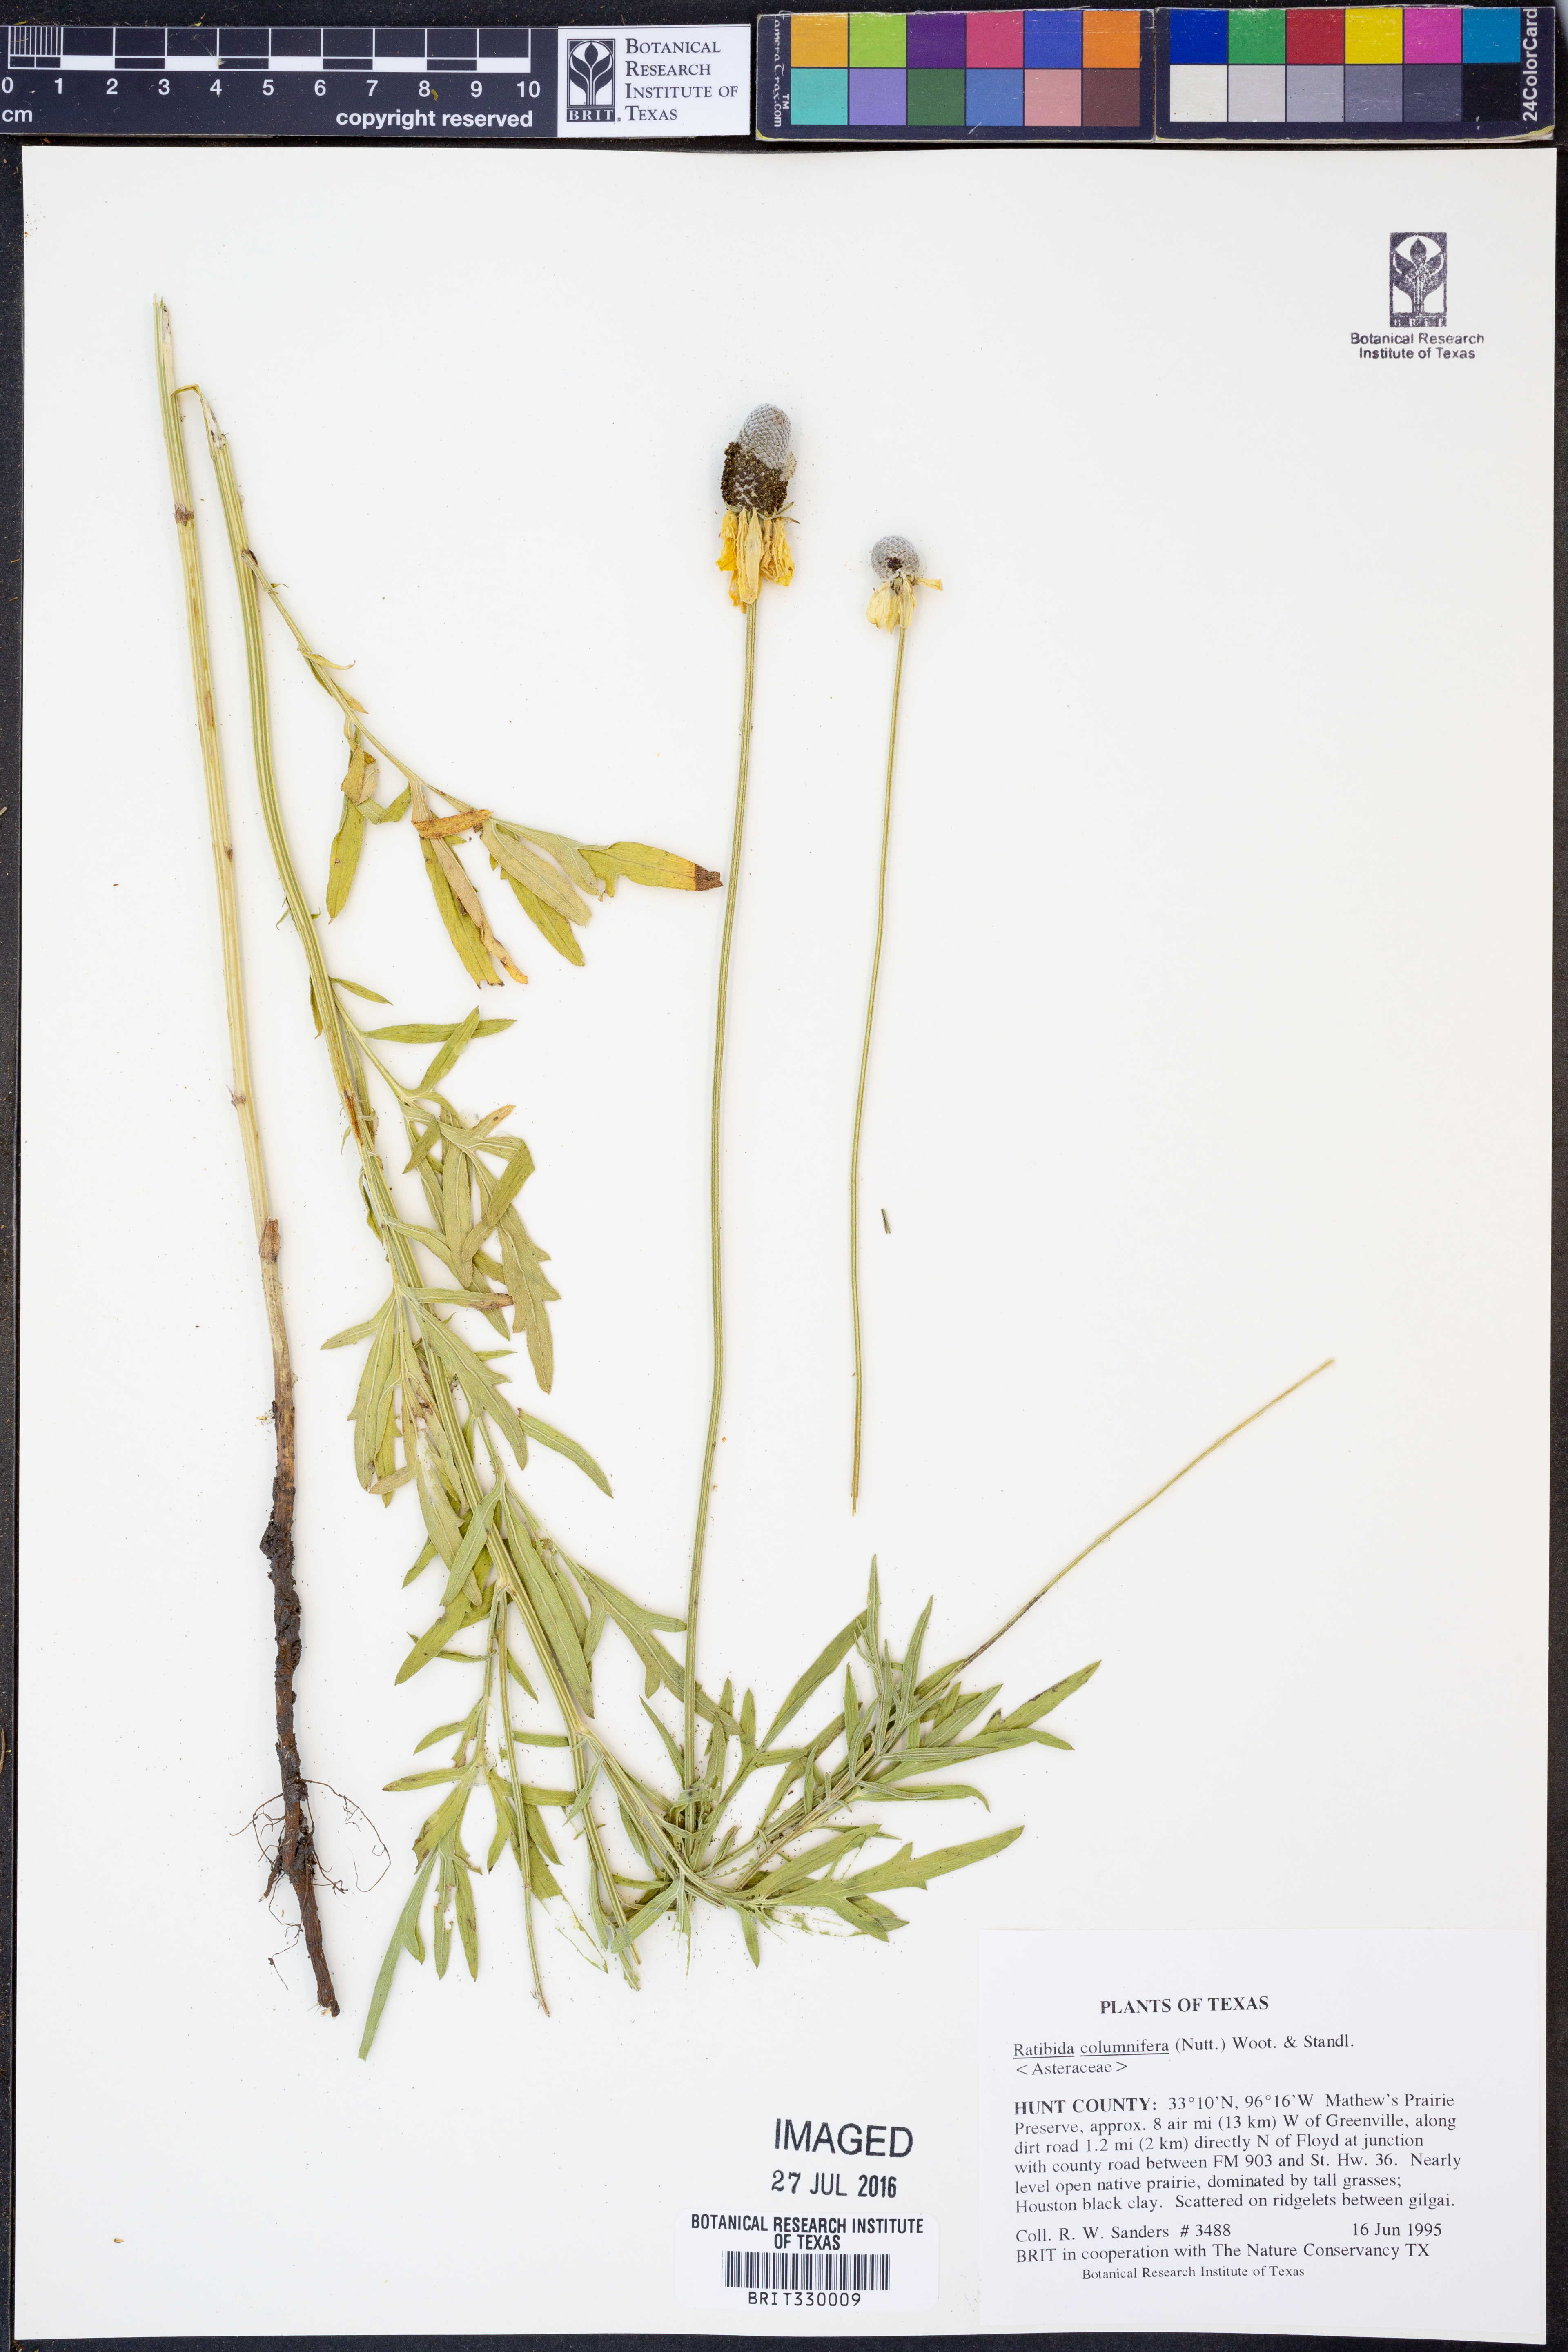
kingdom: Plantae
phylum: Tracheophyta
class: Magnoliopsida
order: Asterales
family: Asteraceae
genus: Ratibida
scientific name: Ratibida columnifera
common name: Prairie coneflower
